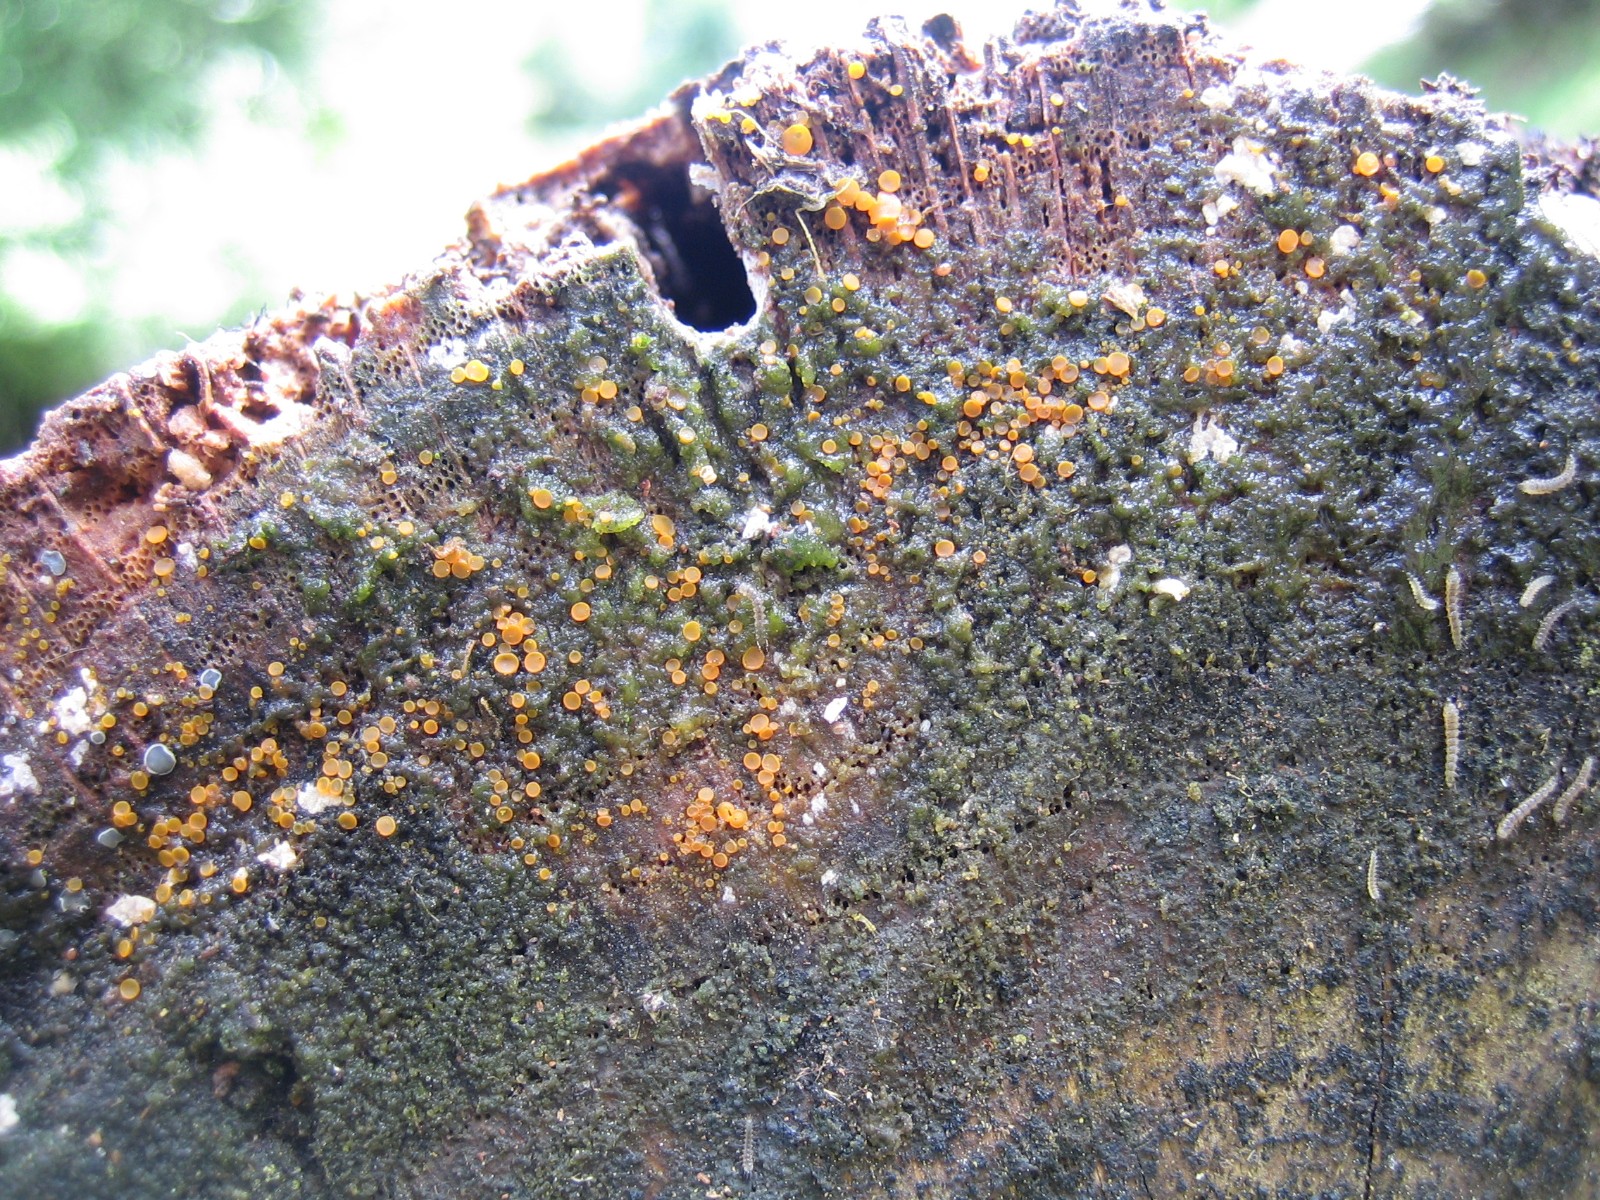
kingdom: Fungi
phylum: Ascomycota
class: Orbiliomycetes
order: Orbiliales
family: Orbiliaceae
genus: Orbilia
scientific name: Orbilia
